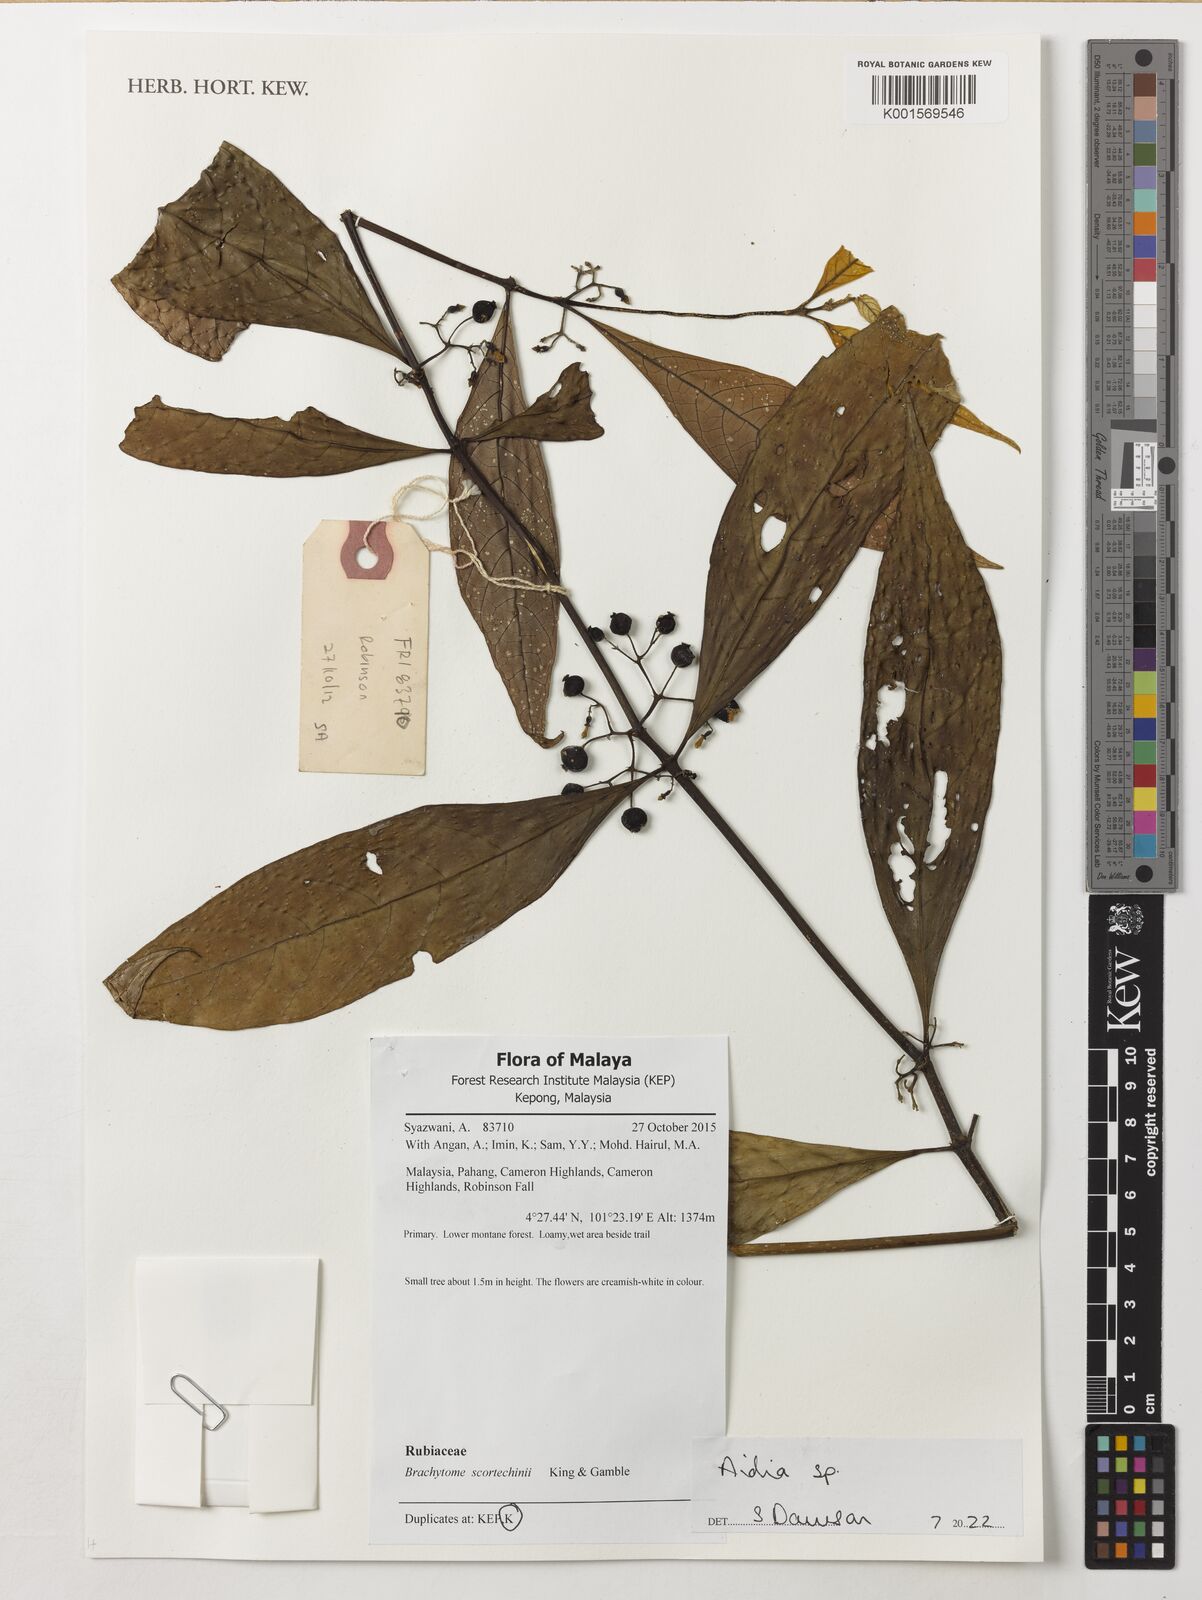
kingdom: Plantae
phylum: Tracheophyta
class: Magnoliopsida
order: Gentianales
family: Rubiaceae
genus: Brachytome
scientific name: Brachytome scortechinii
